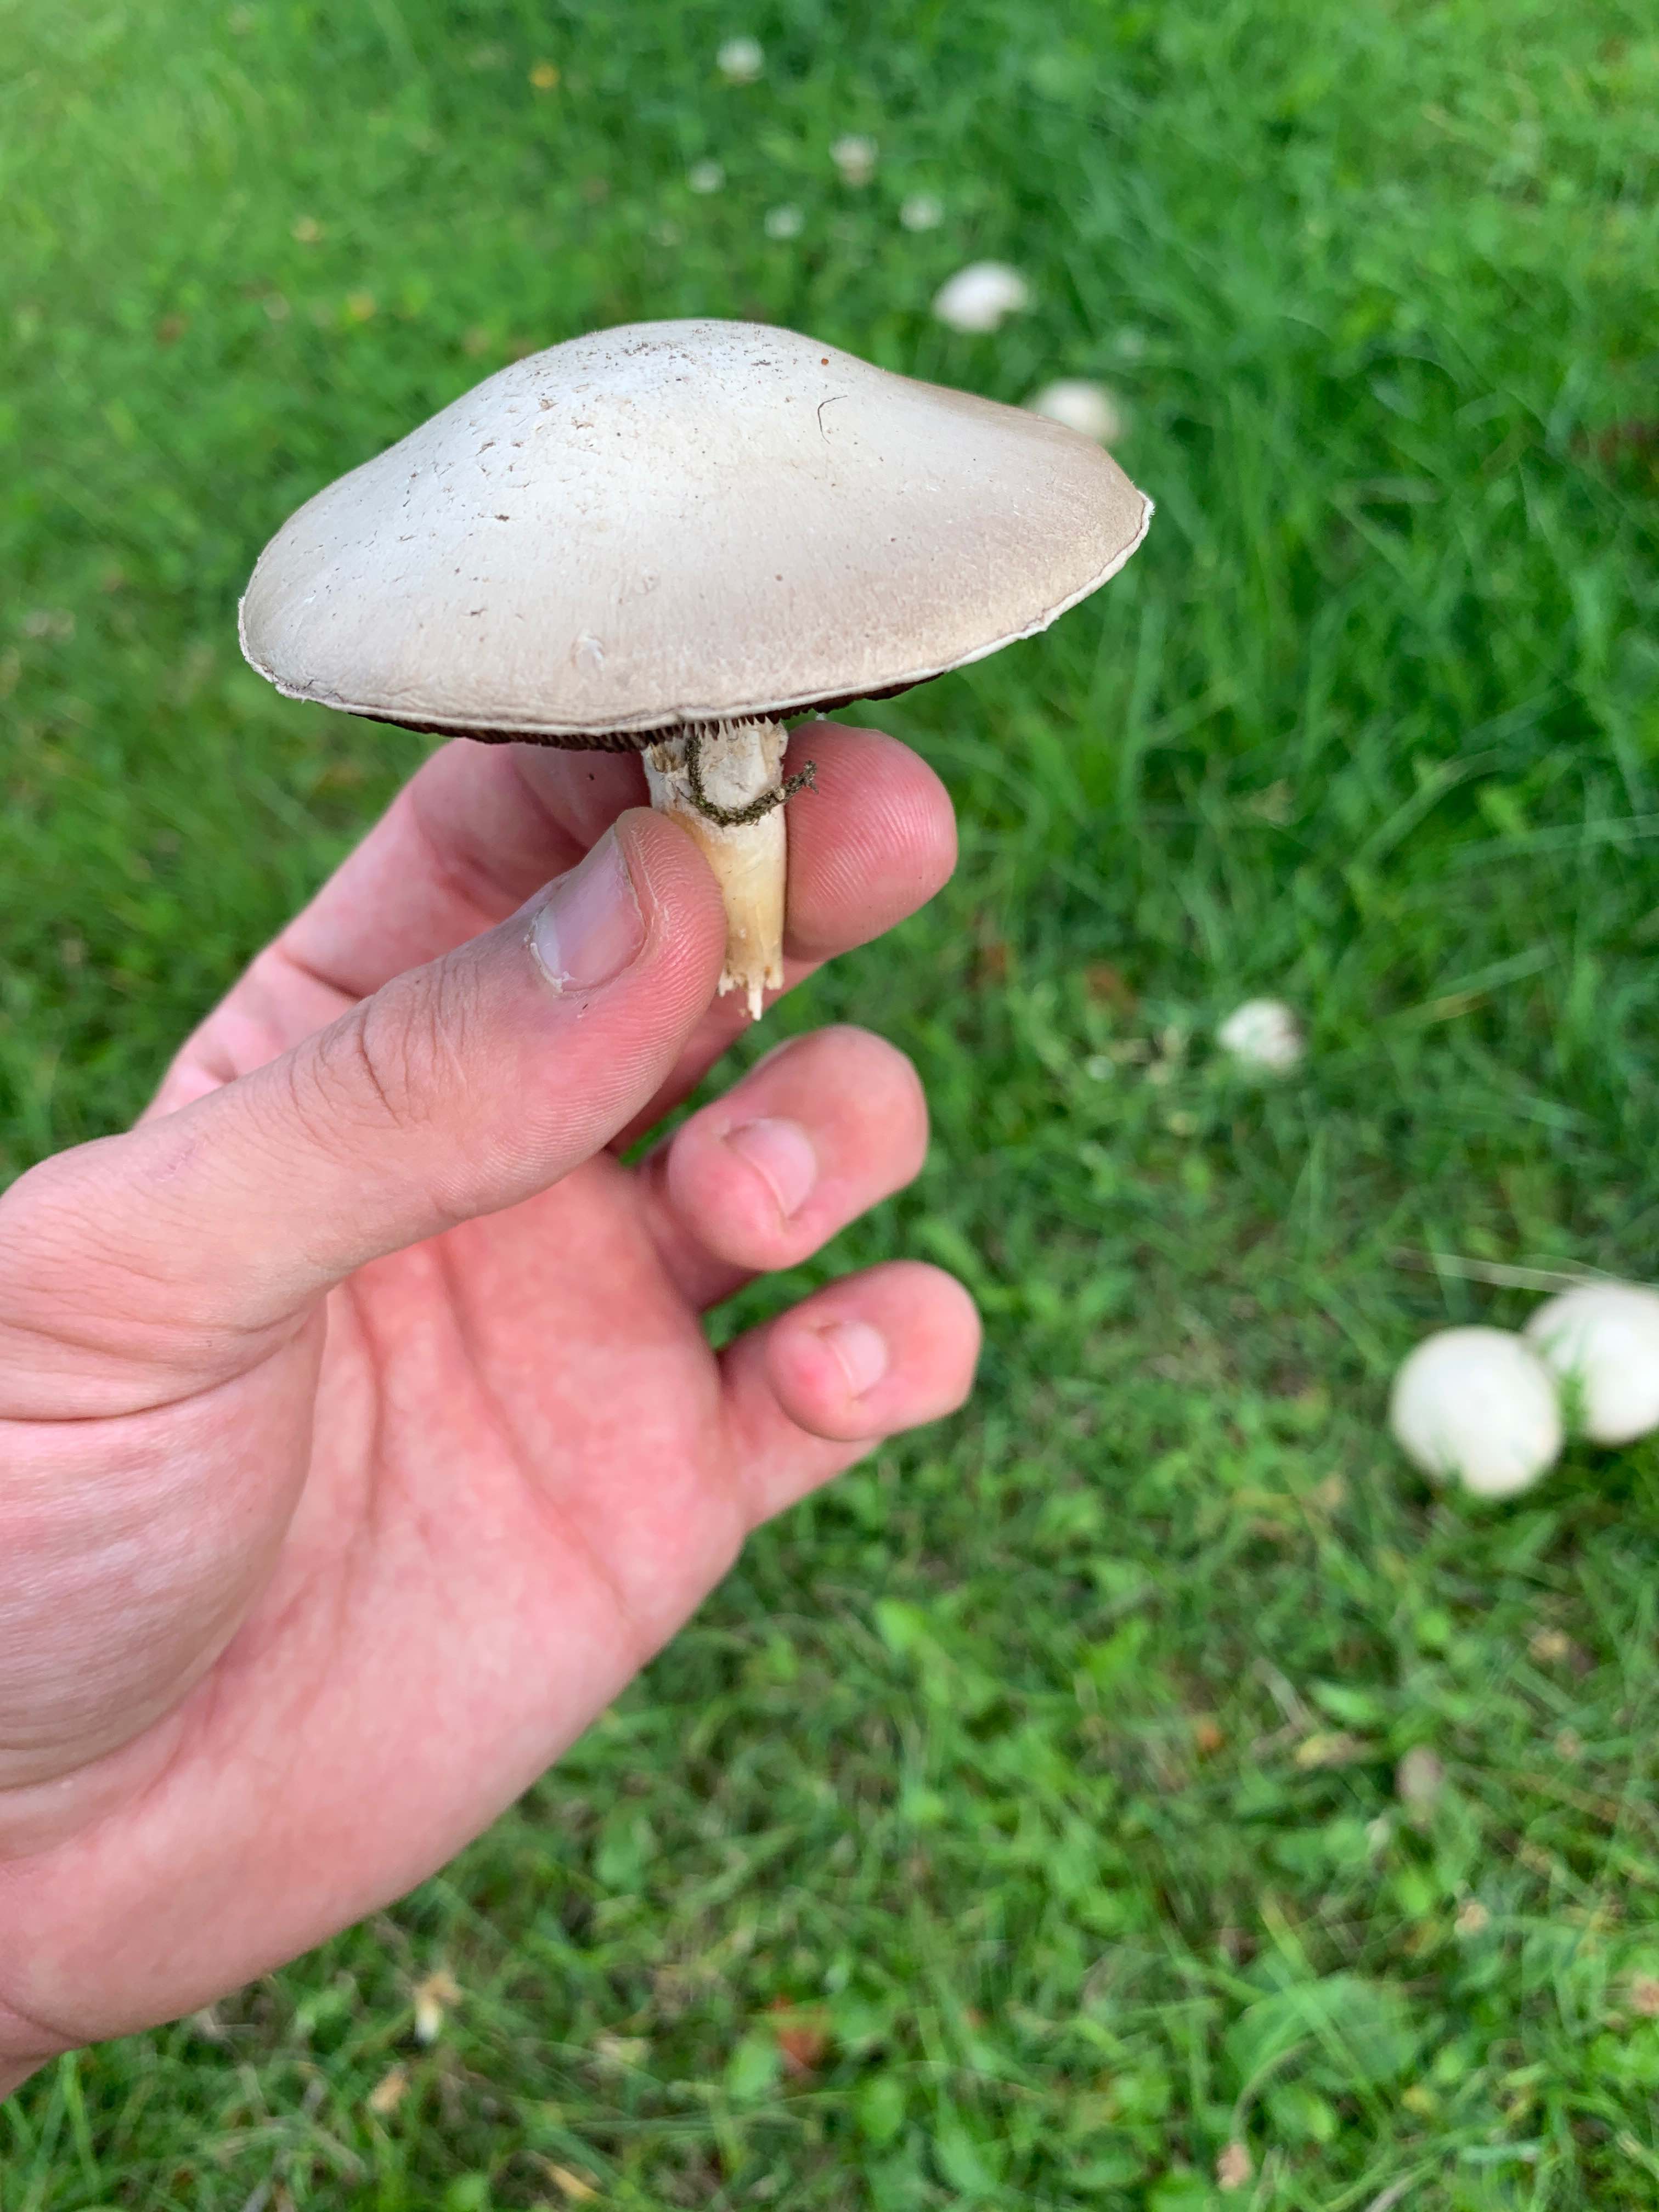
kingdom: Fungi
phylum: Basidiomycota
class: Agaricomycetes
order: Agaricales
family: Agaricaceae
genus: Agaricus
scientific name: Agaricus
